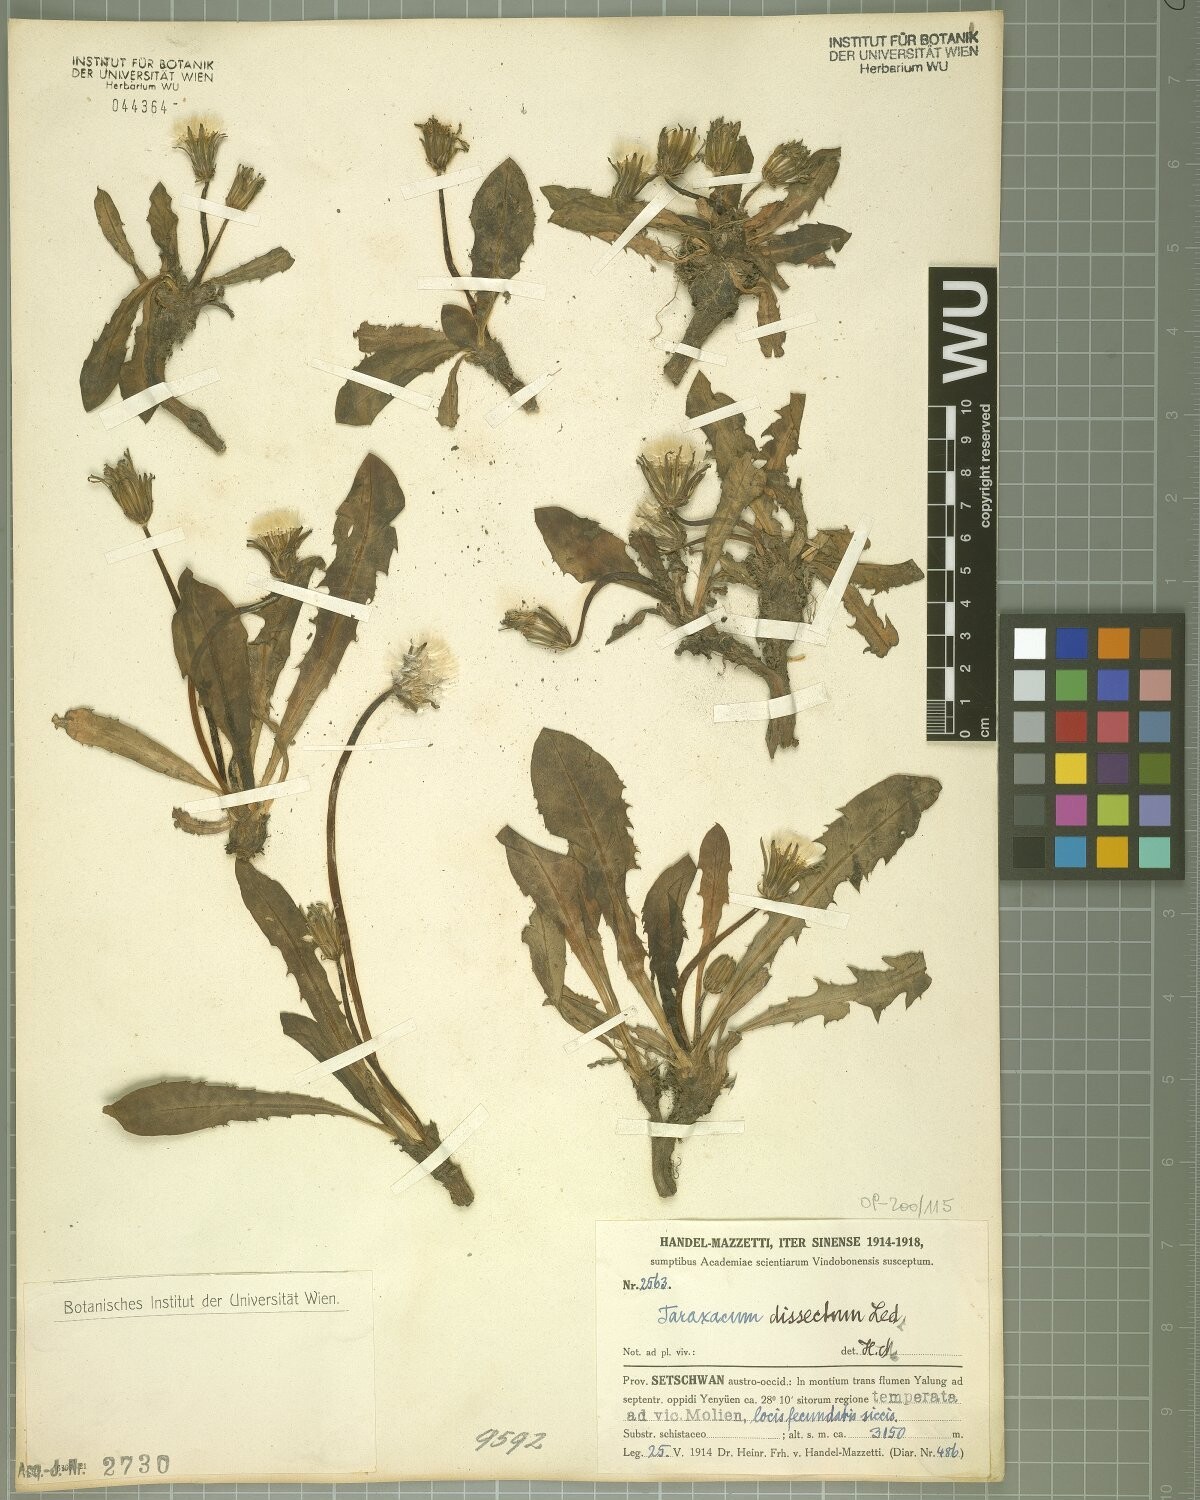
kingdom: Plantae
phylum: Tracheophyta
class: Magnoliopsida
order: Asterales
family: Asteraceae
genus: Taraxacum
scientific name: Taraxacum dissectum
